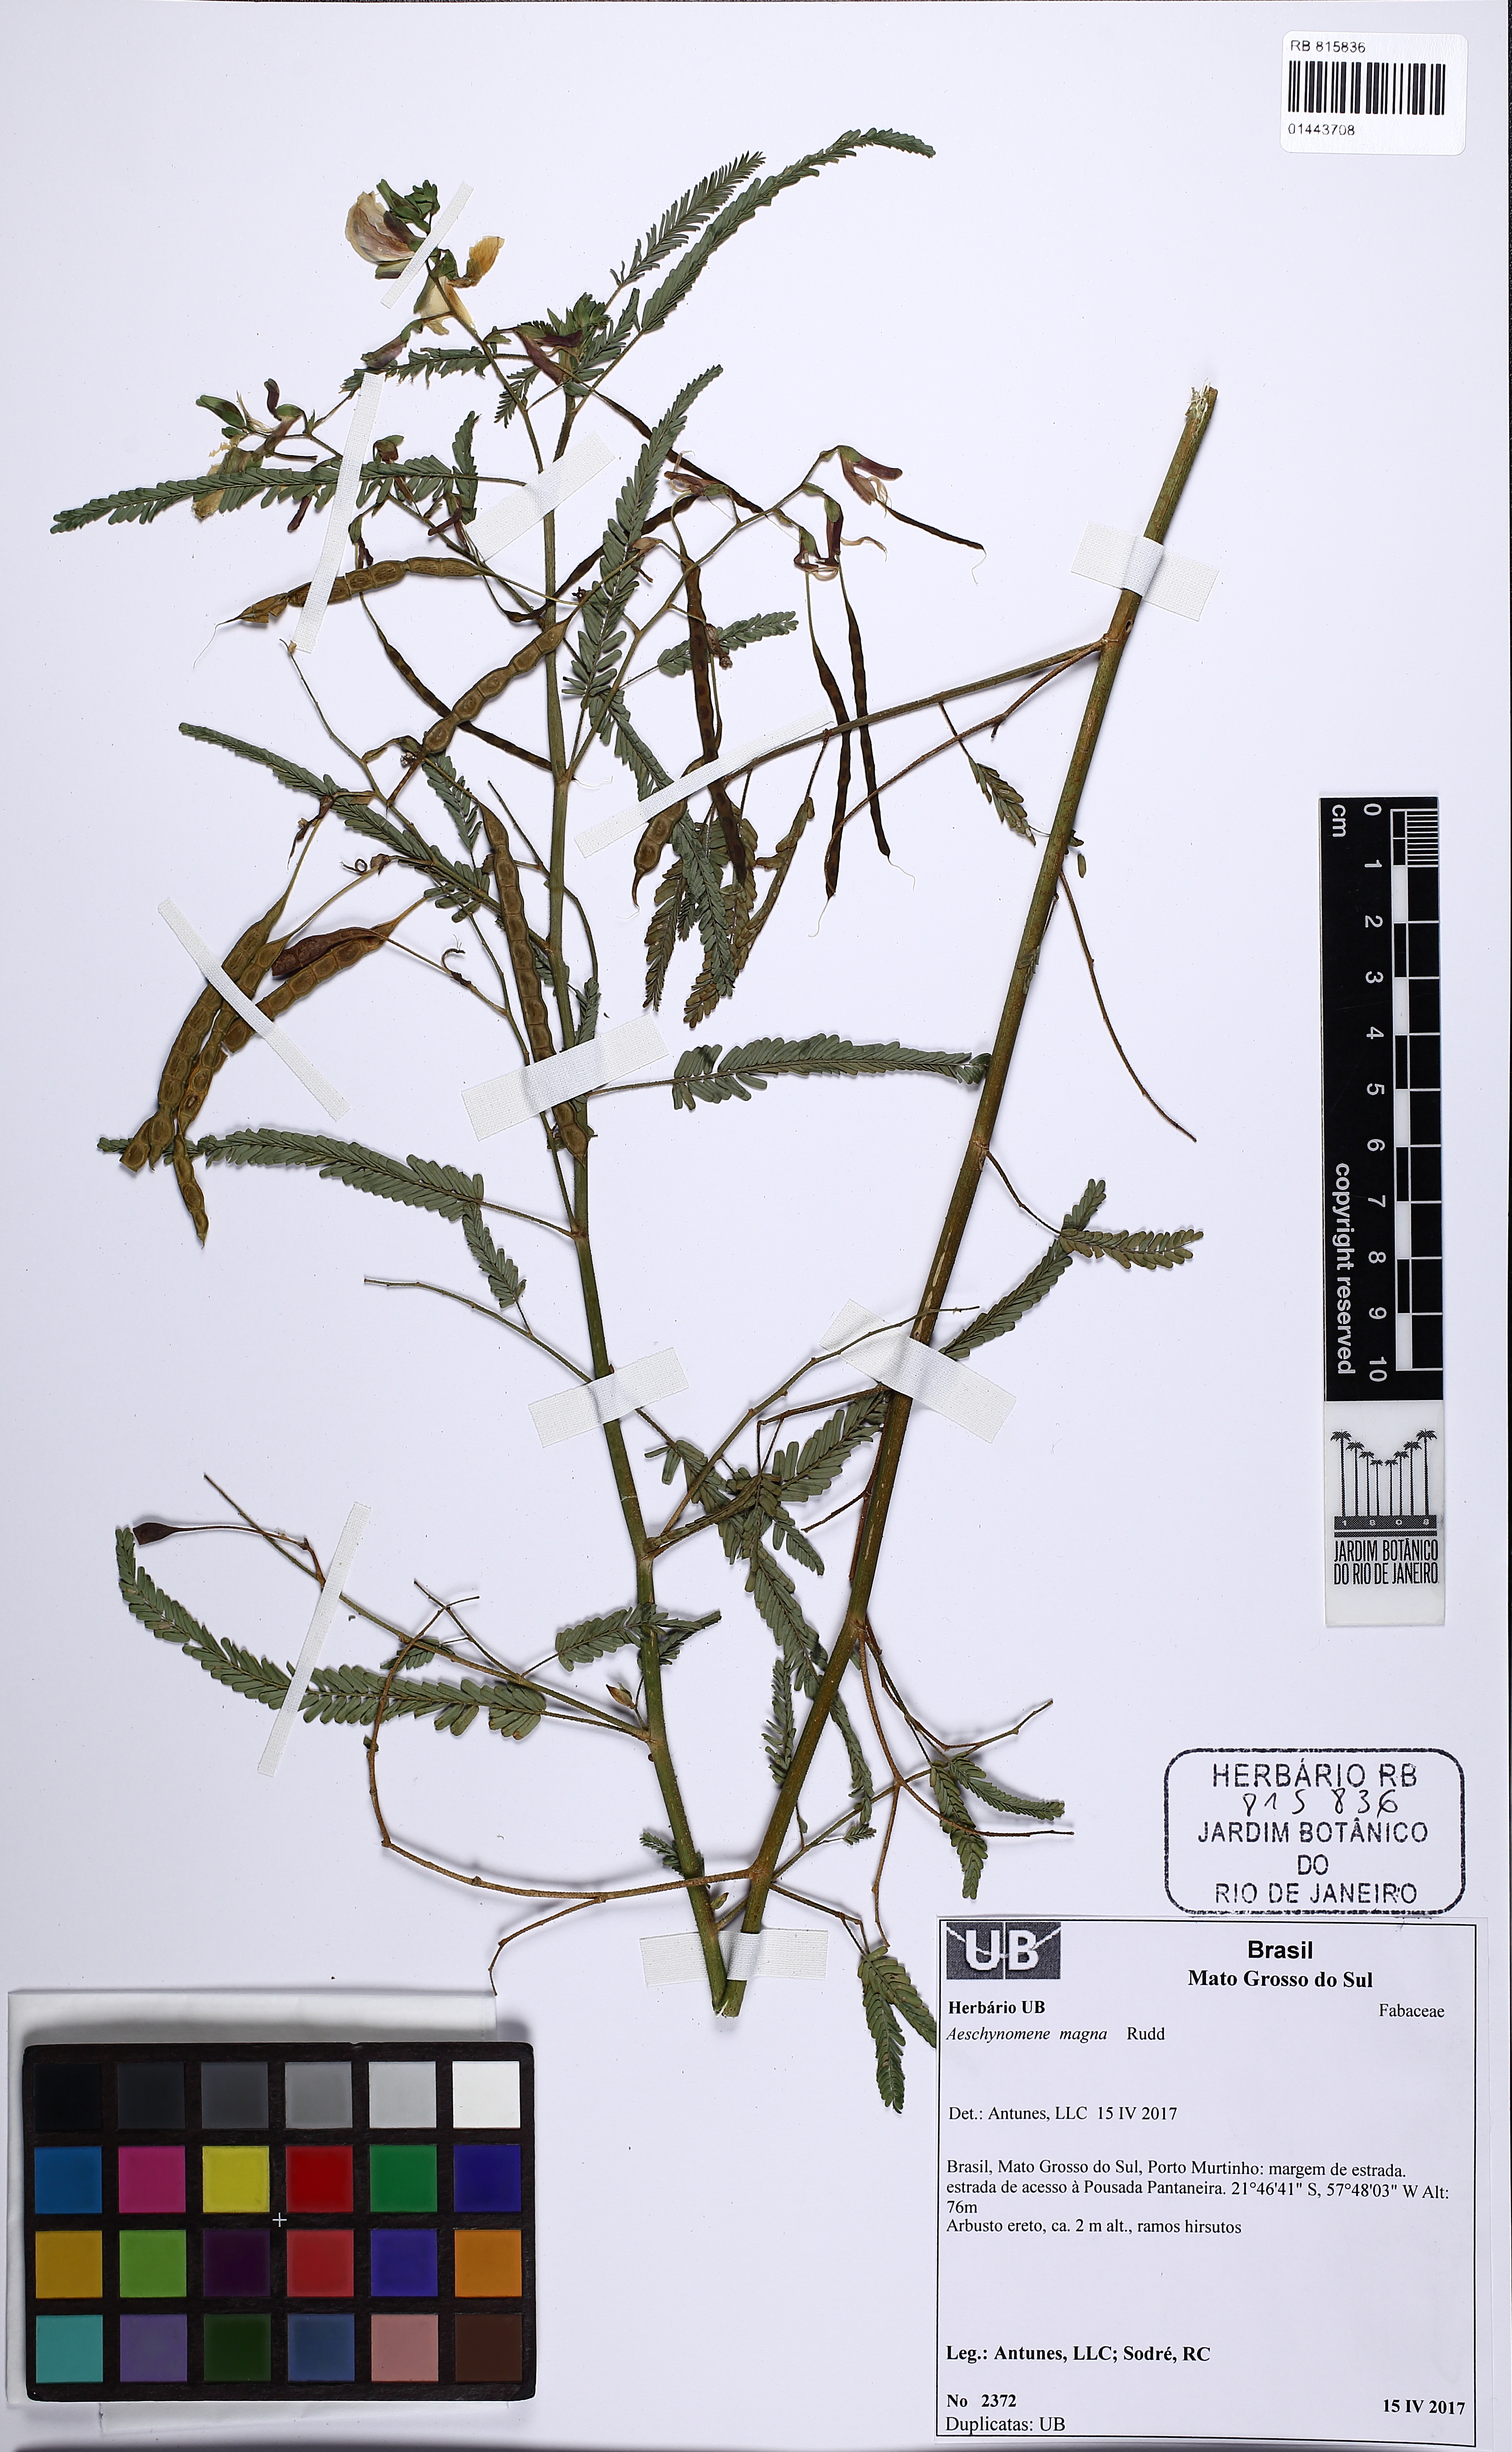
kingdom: Plantae
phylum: Tracheophyta
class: Magnoliopsida
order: Fabales
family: Fabaceae
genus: Aeschynomene
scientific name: Aeschynomene magna
